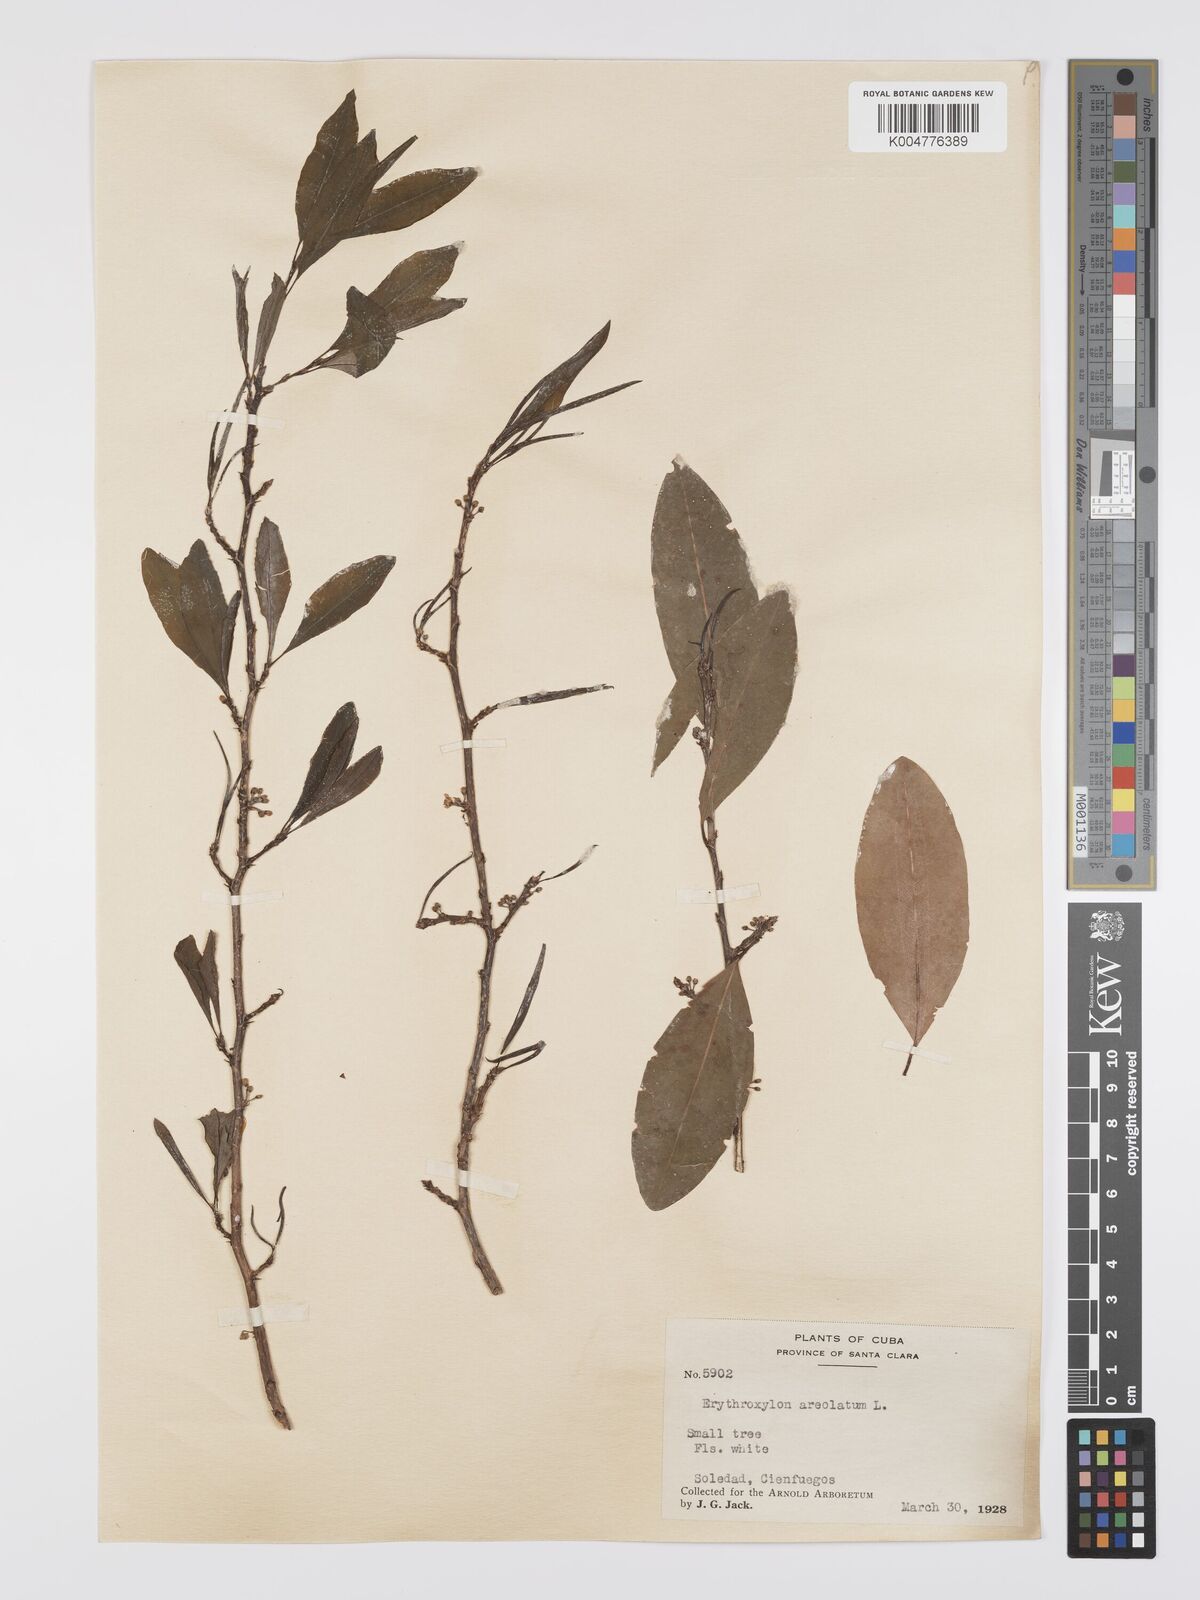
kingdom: Plantae
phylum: Tracheophyta
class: Magnoliopsida
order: Malpighiales
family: Erythroxylaceae
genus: Erythroxylum
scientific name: Erythroxylum areolatum
